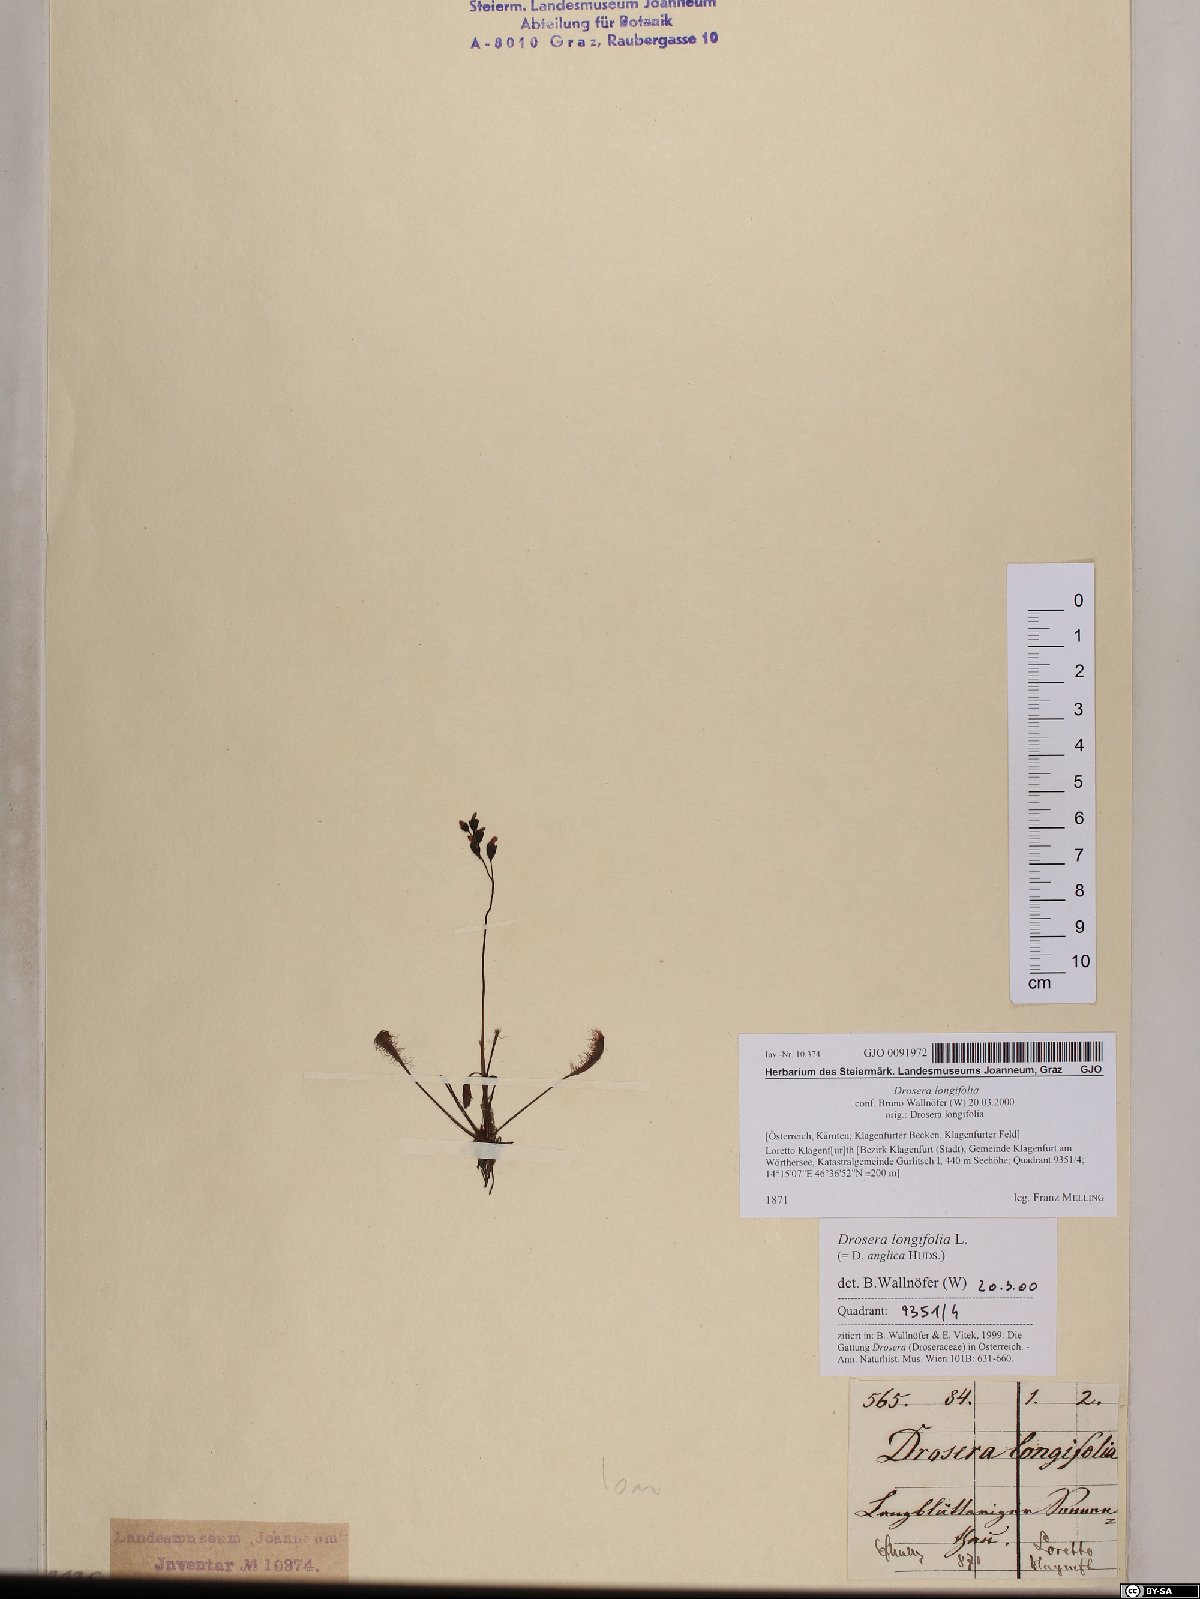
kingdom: Plantae
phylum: Tracheophyta
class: Magnoliopsida
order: Caryophyllales
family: Droseraceae
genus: Drosera
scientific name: Drosera anglica
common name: Great sundew
